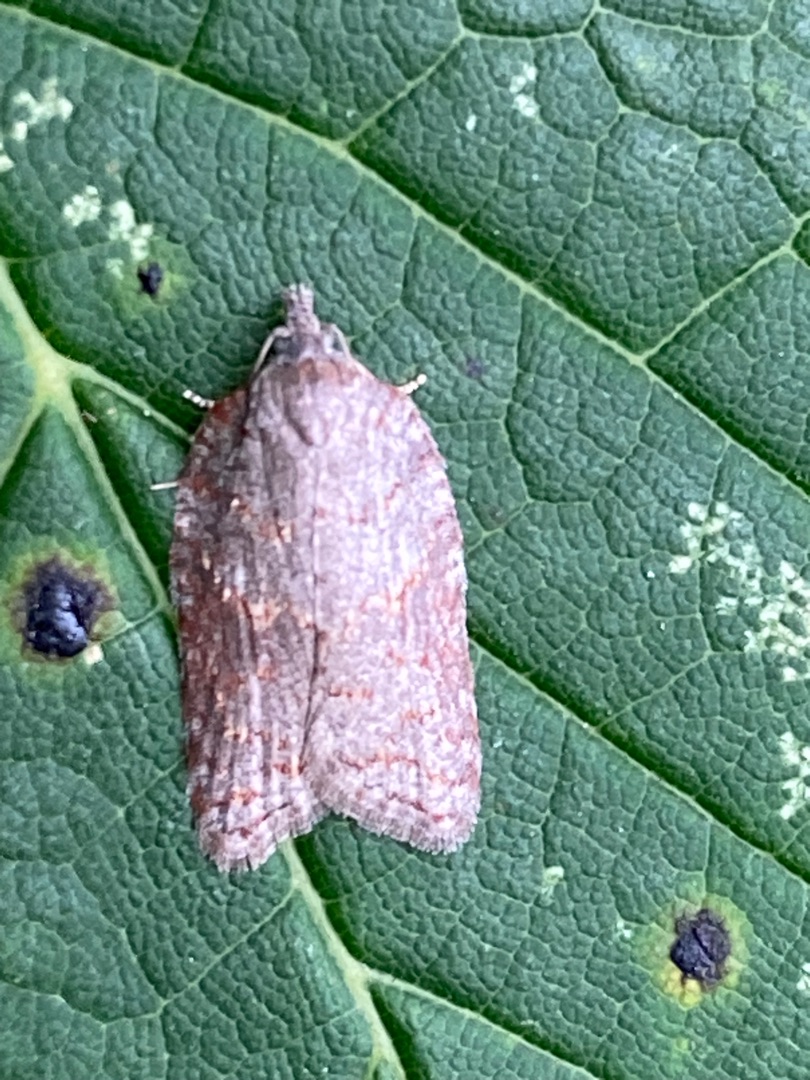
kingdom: Animalia
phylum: Arthropoda
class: Insecta
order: Lepidoptera
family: Tortricidae
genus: Acleris
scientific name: Acleris sparsana
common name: Bøgevintervikler
